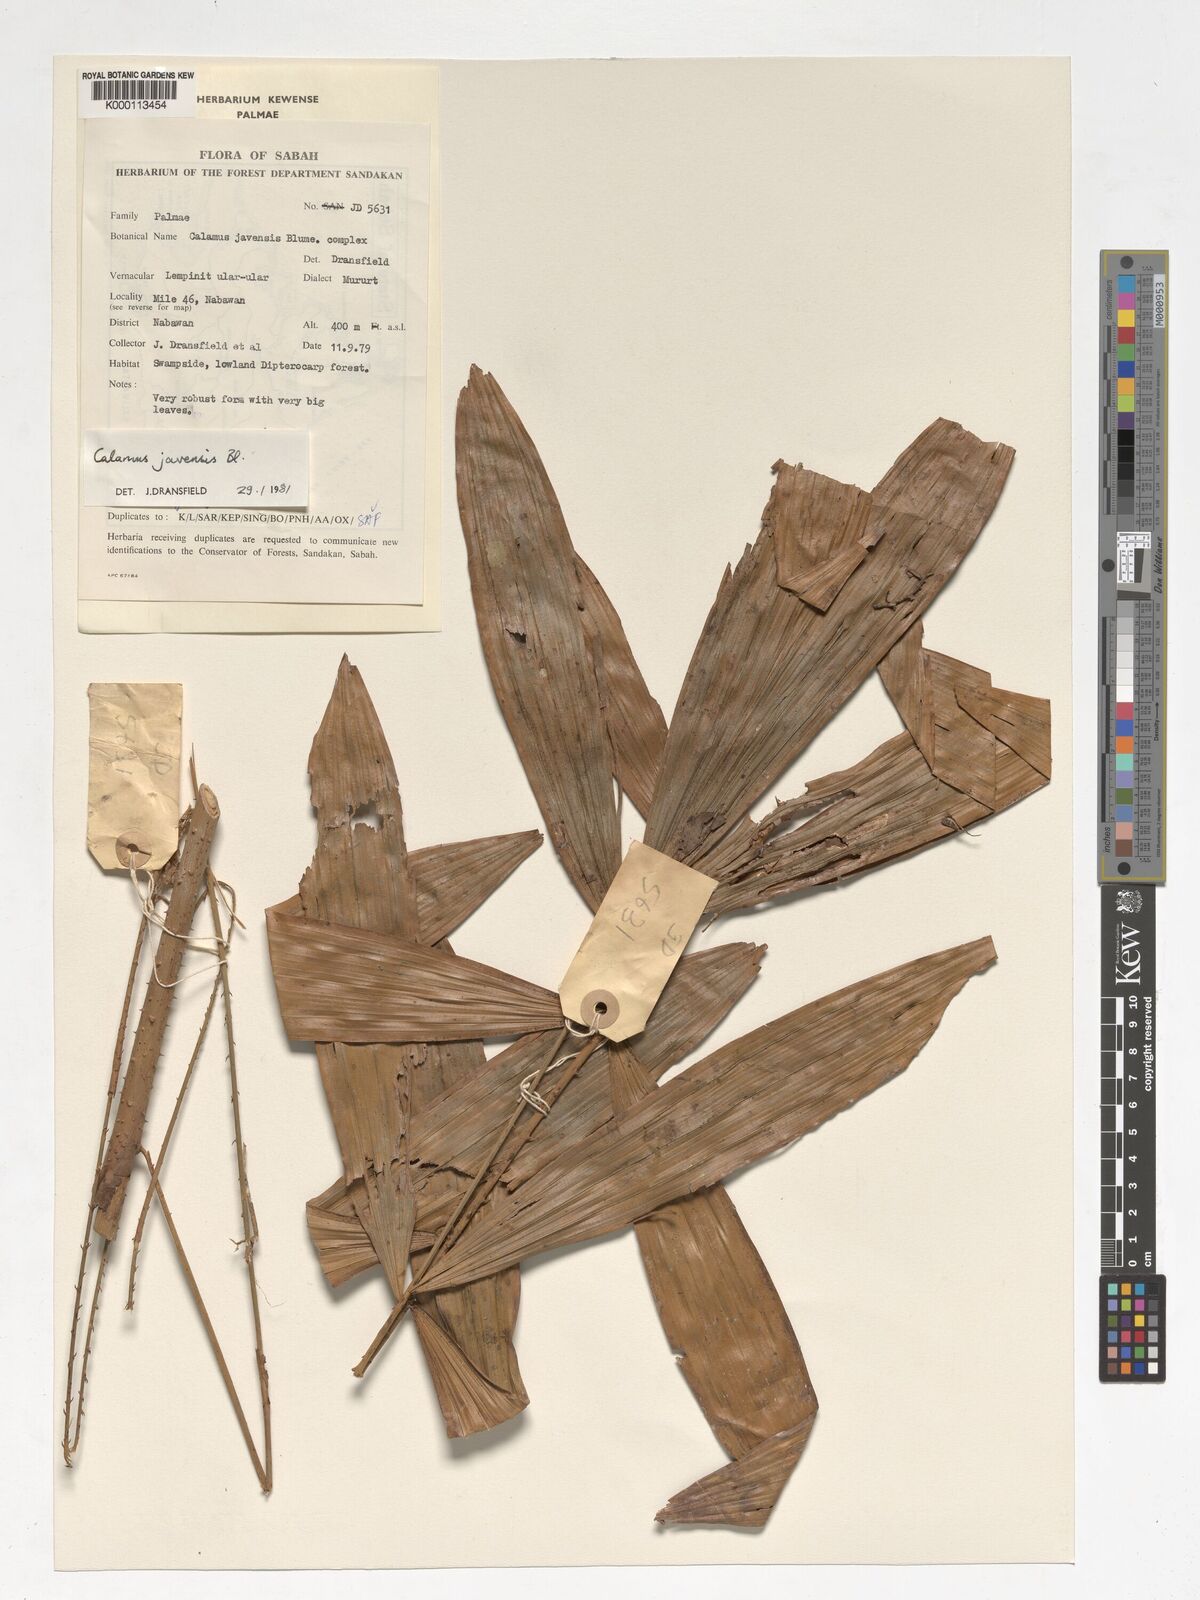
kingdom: Plantae
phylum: Tracheophyta
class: Liliopsida
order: Arecales
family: Arecaceae
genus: Calamus
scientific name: Calamus javensis
